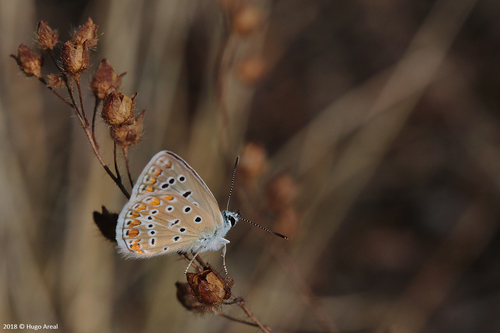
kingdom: Animalia
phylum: Arthropoda
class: Insecta
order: Lepidoptera
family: Lycaenidae
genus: Polyommatus
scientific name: Polyommatus icarus
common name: Common blue
